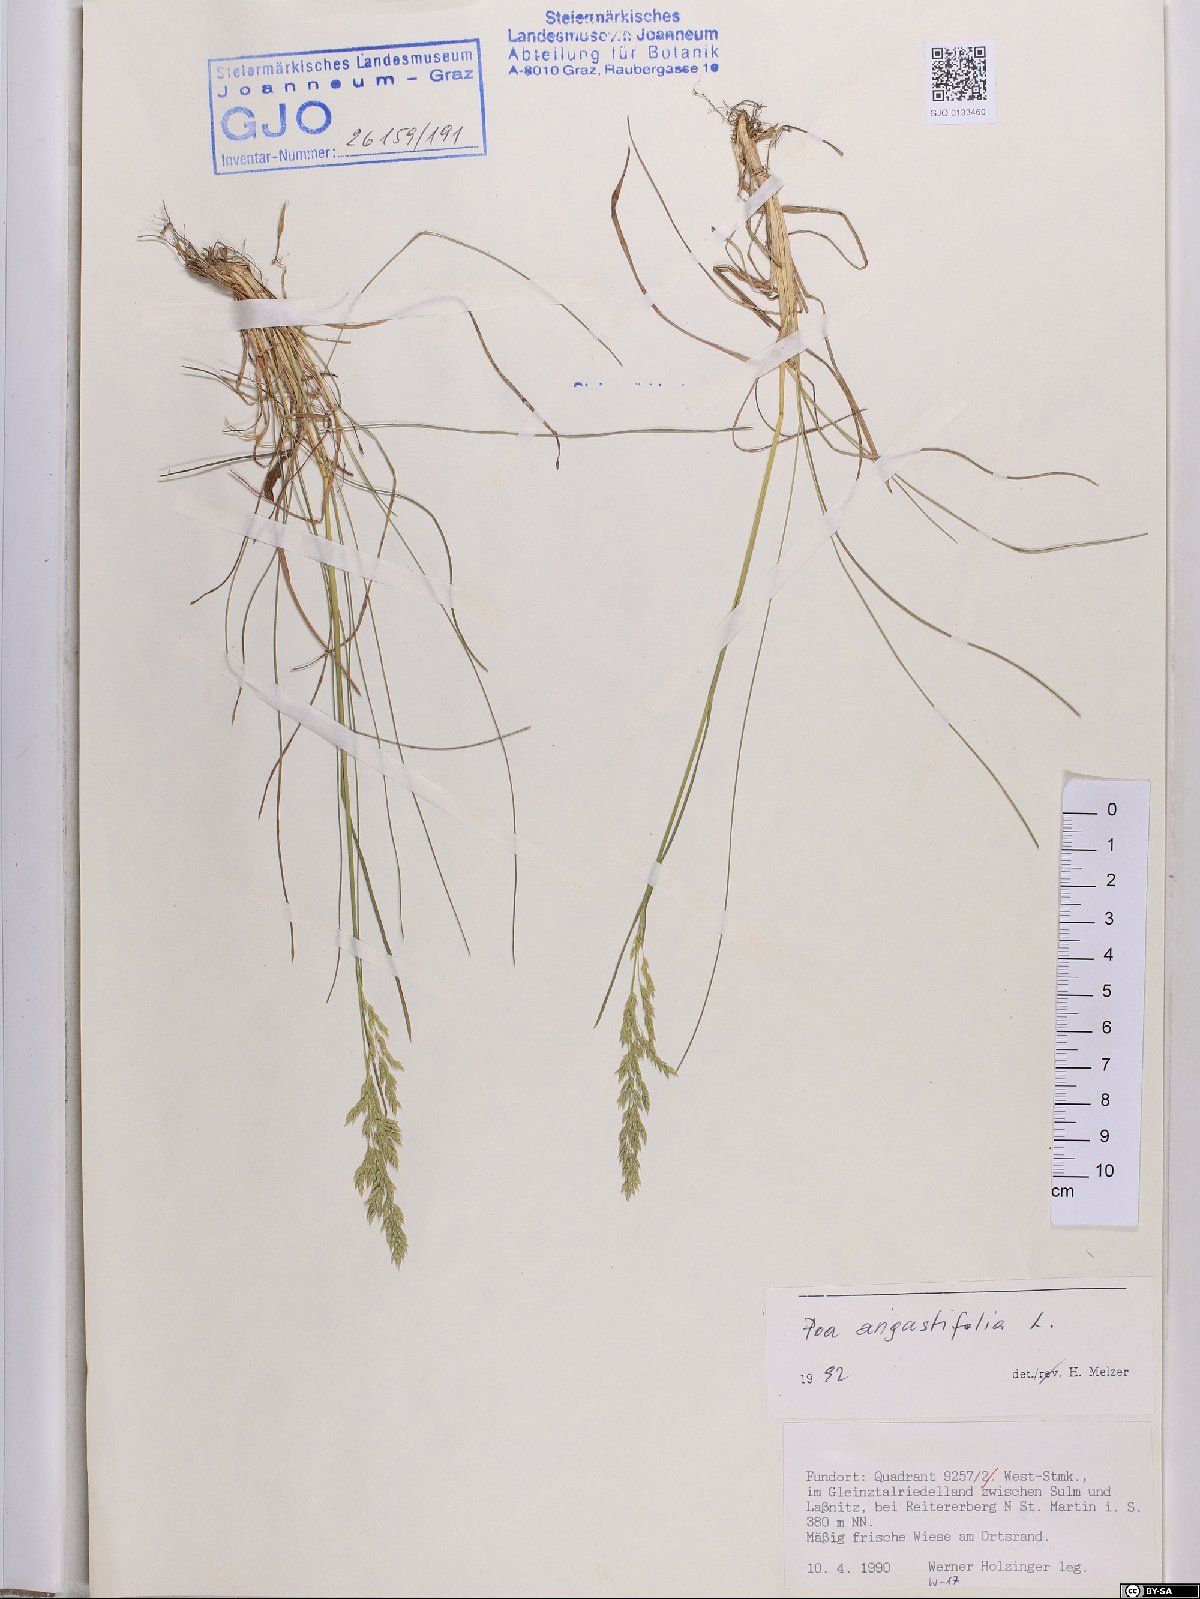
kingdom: Plantae
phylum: Tracheophyta
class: Liliopsida
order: Poales
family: Poaceae
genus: Poa
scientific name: Poa angustifolia
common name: Narrow-leaved meadow-grass
